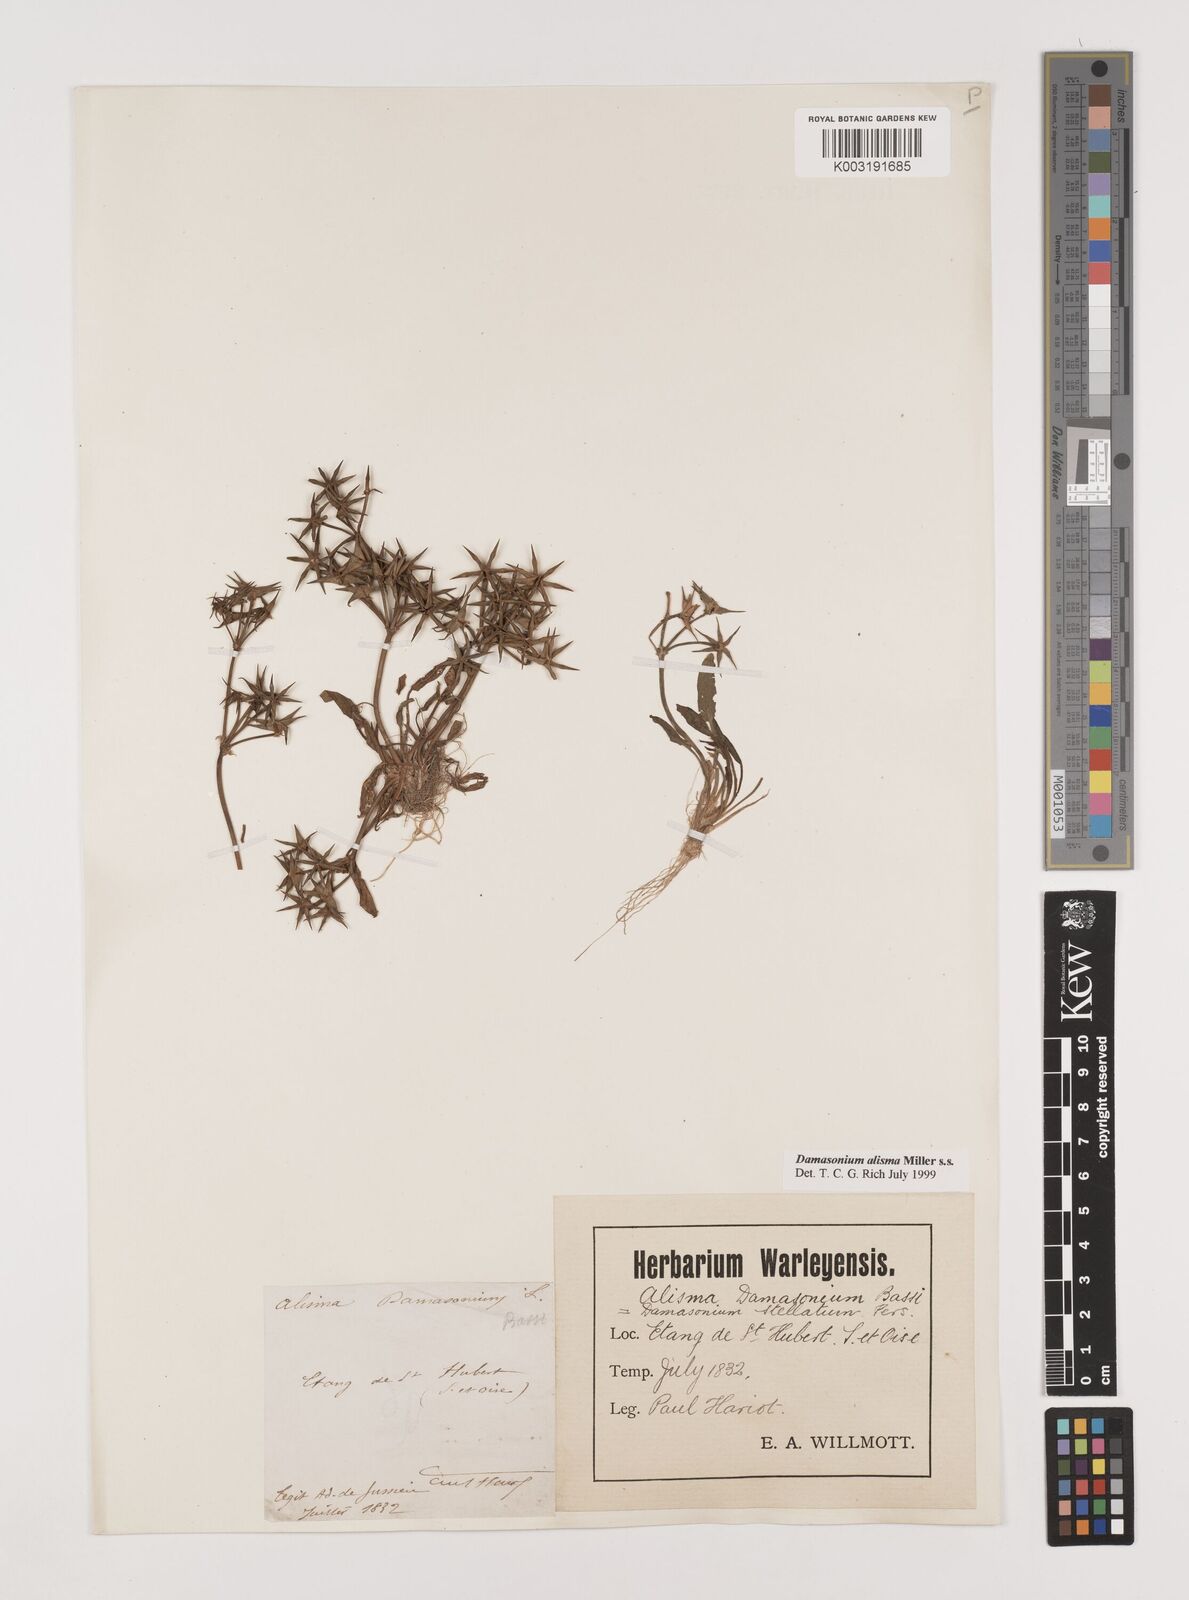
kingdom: Plantae
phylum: Tracheophyta
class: Liliopsida
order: Alismatales
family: Alismataceae
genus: Damasonium
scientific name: Damasonium alisma
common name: Starfruit
